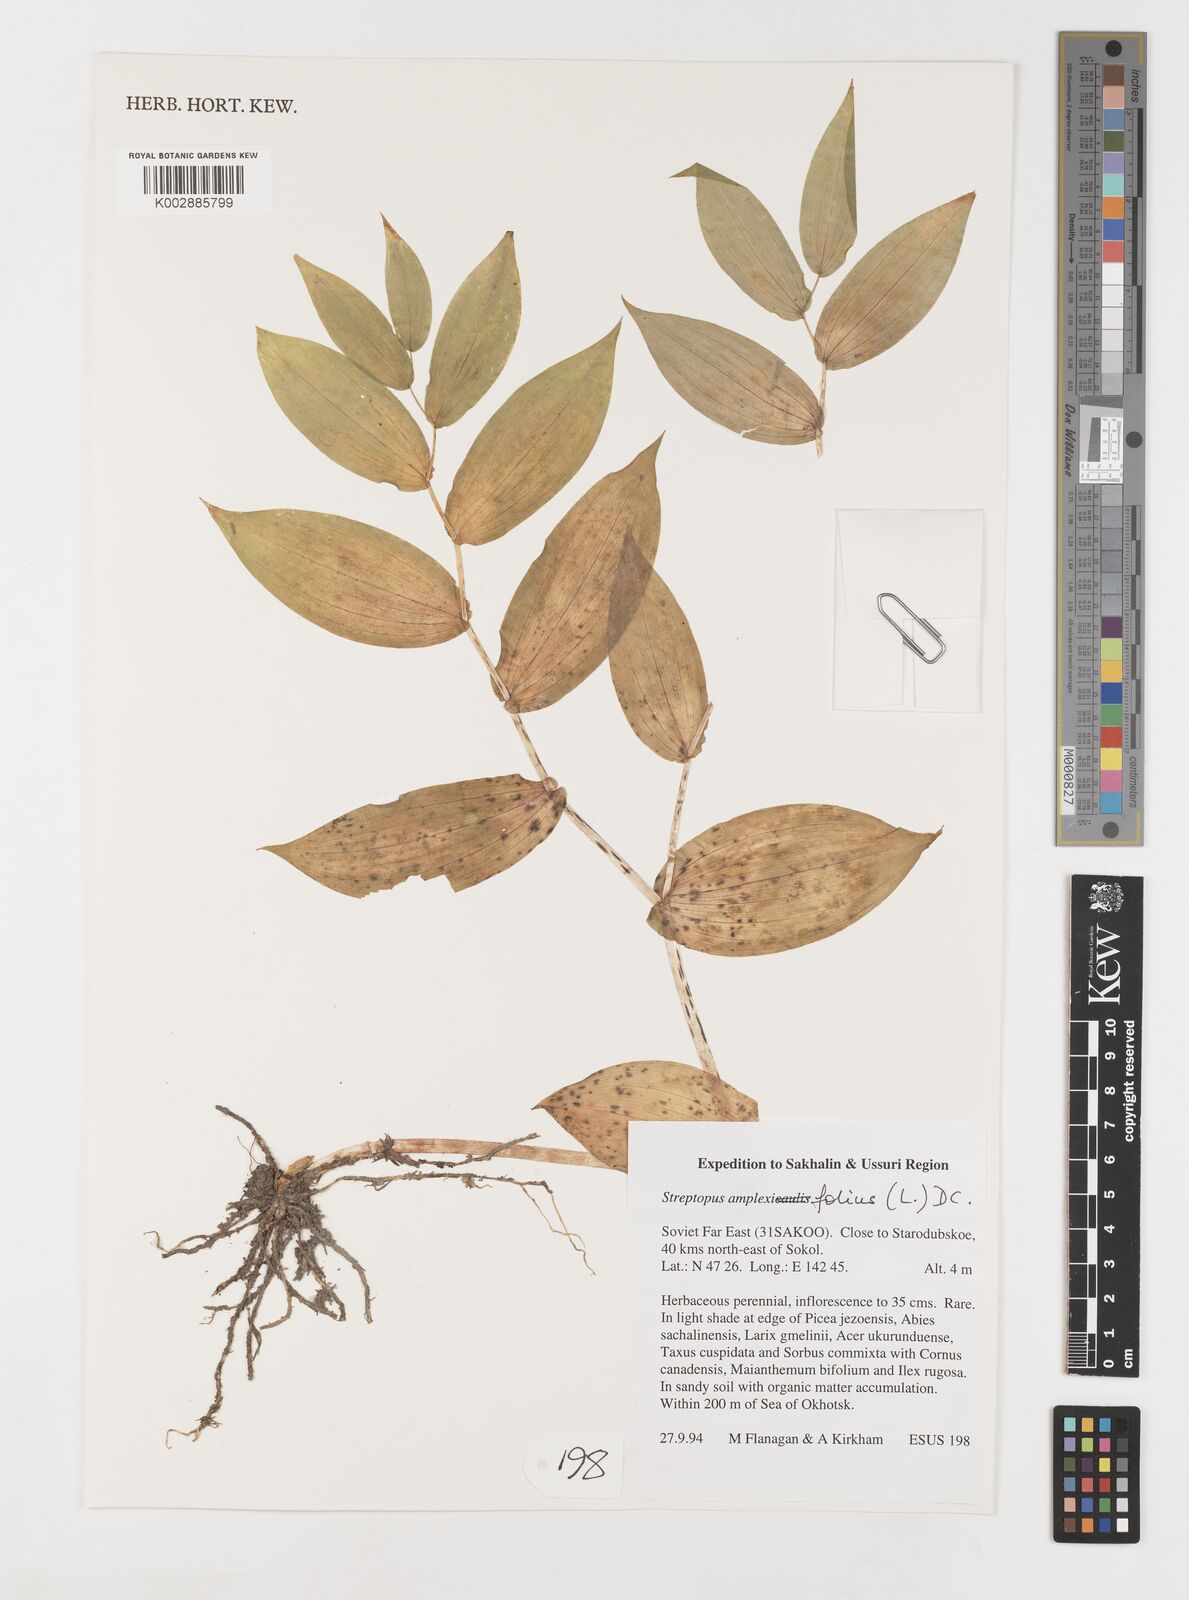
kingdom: Plantae
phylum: Tracheophyta
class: Liliopsida
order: Liliales
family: Liliaceae
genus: Streptopus
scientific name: Streptopus amplexifolius
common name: Clasp twisted stalk
